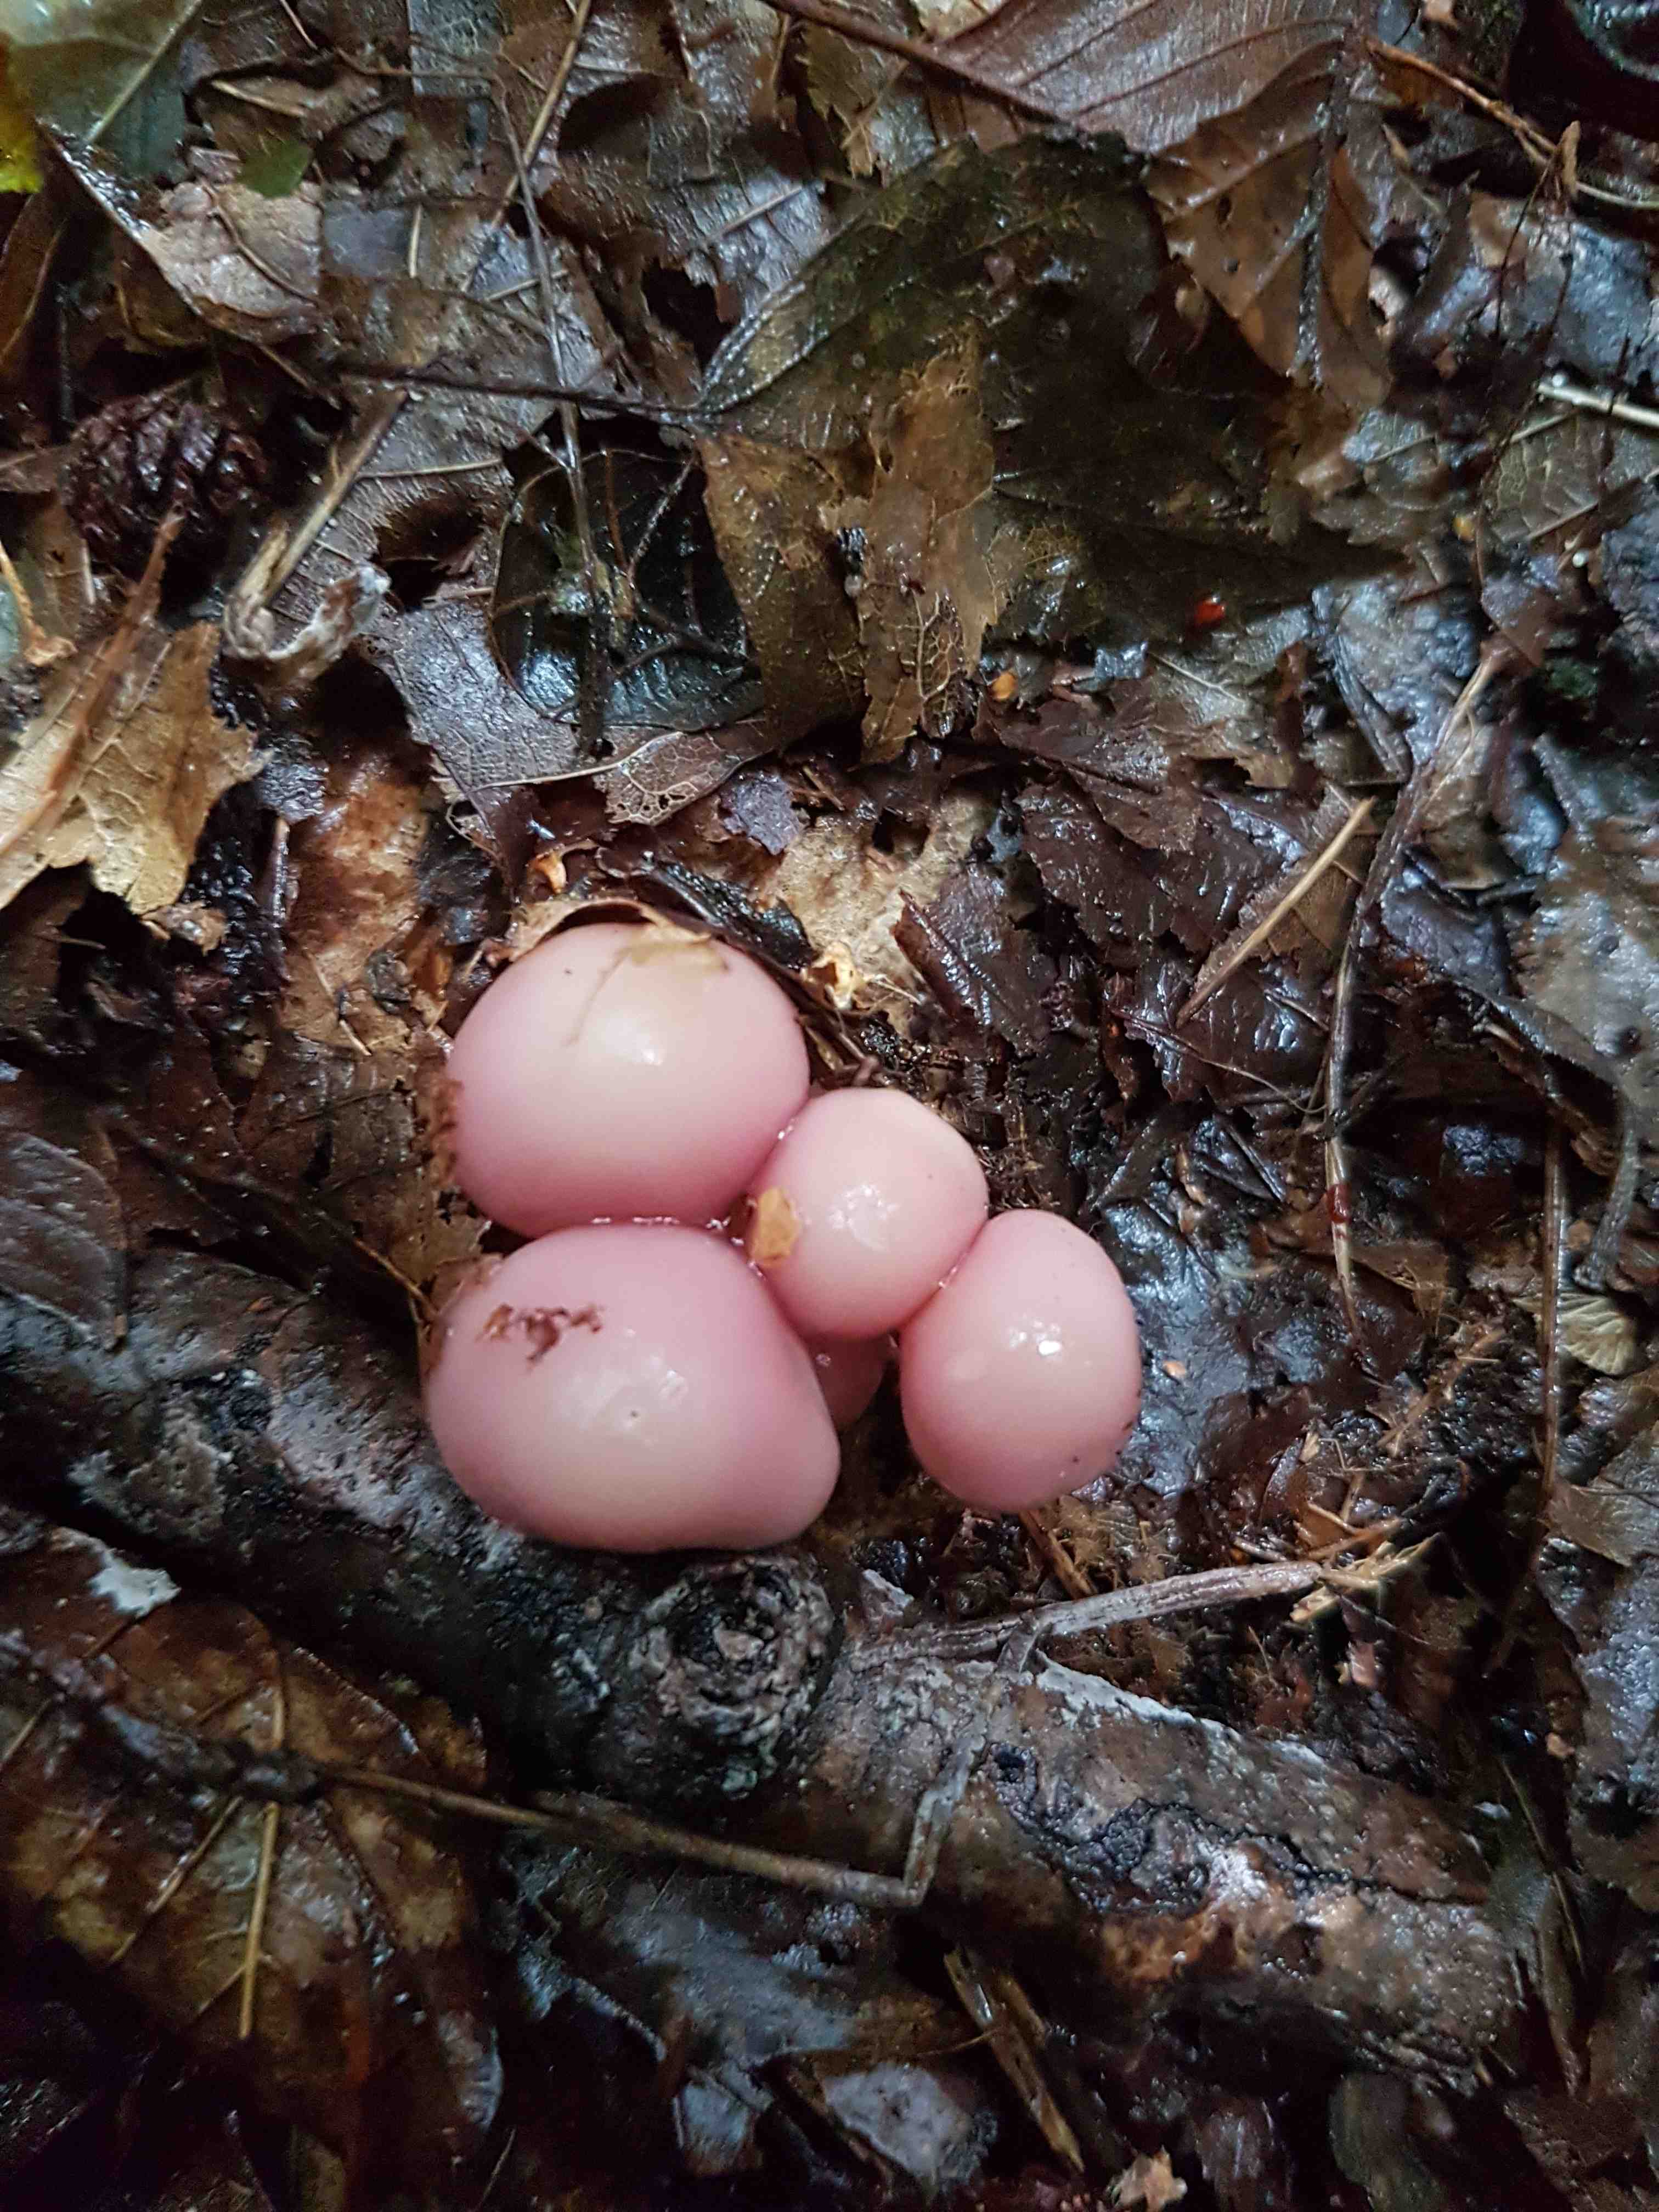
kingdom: Fungi
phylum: Basidiomycota
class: Agaricomycetes
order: Agaricales
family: Mycenaceae
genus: Mycena
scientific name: Mycena rosea
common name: rosa huesvamp
